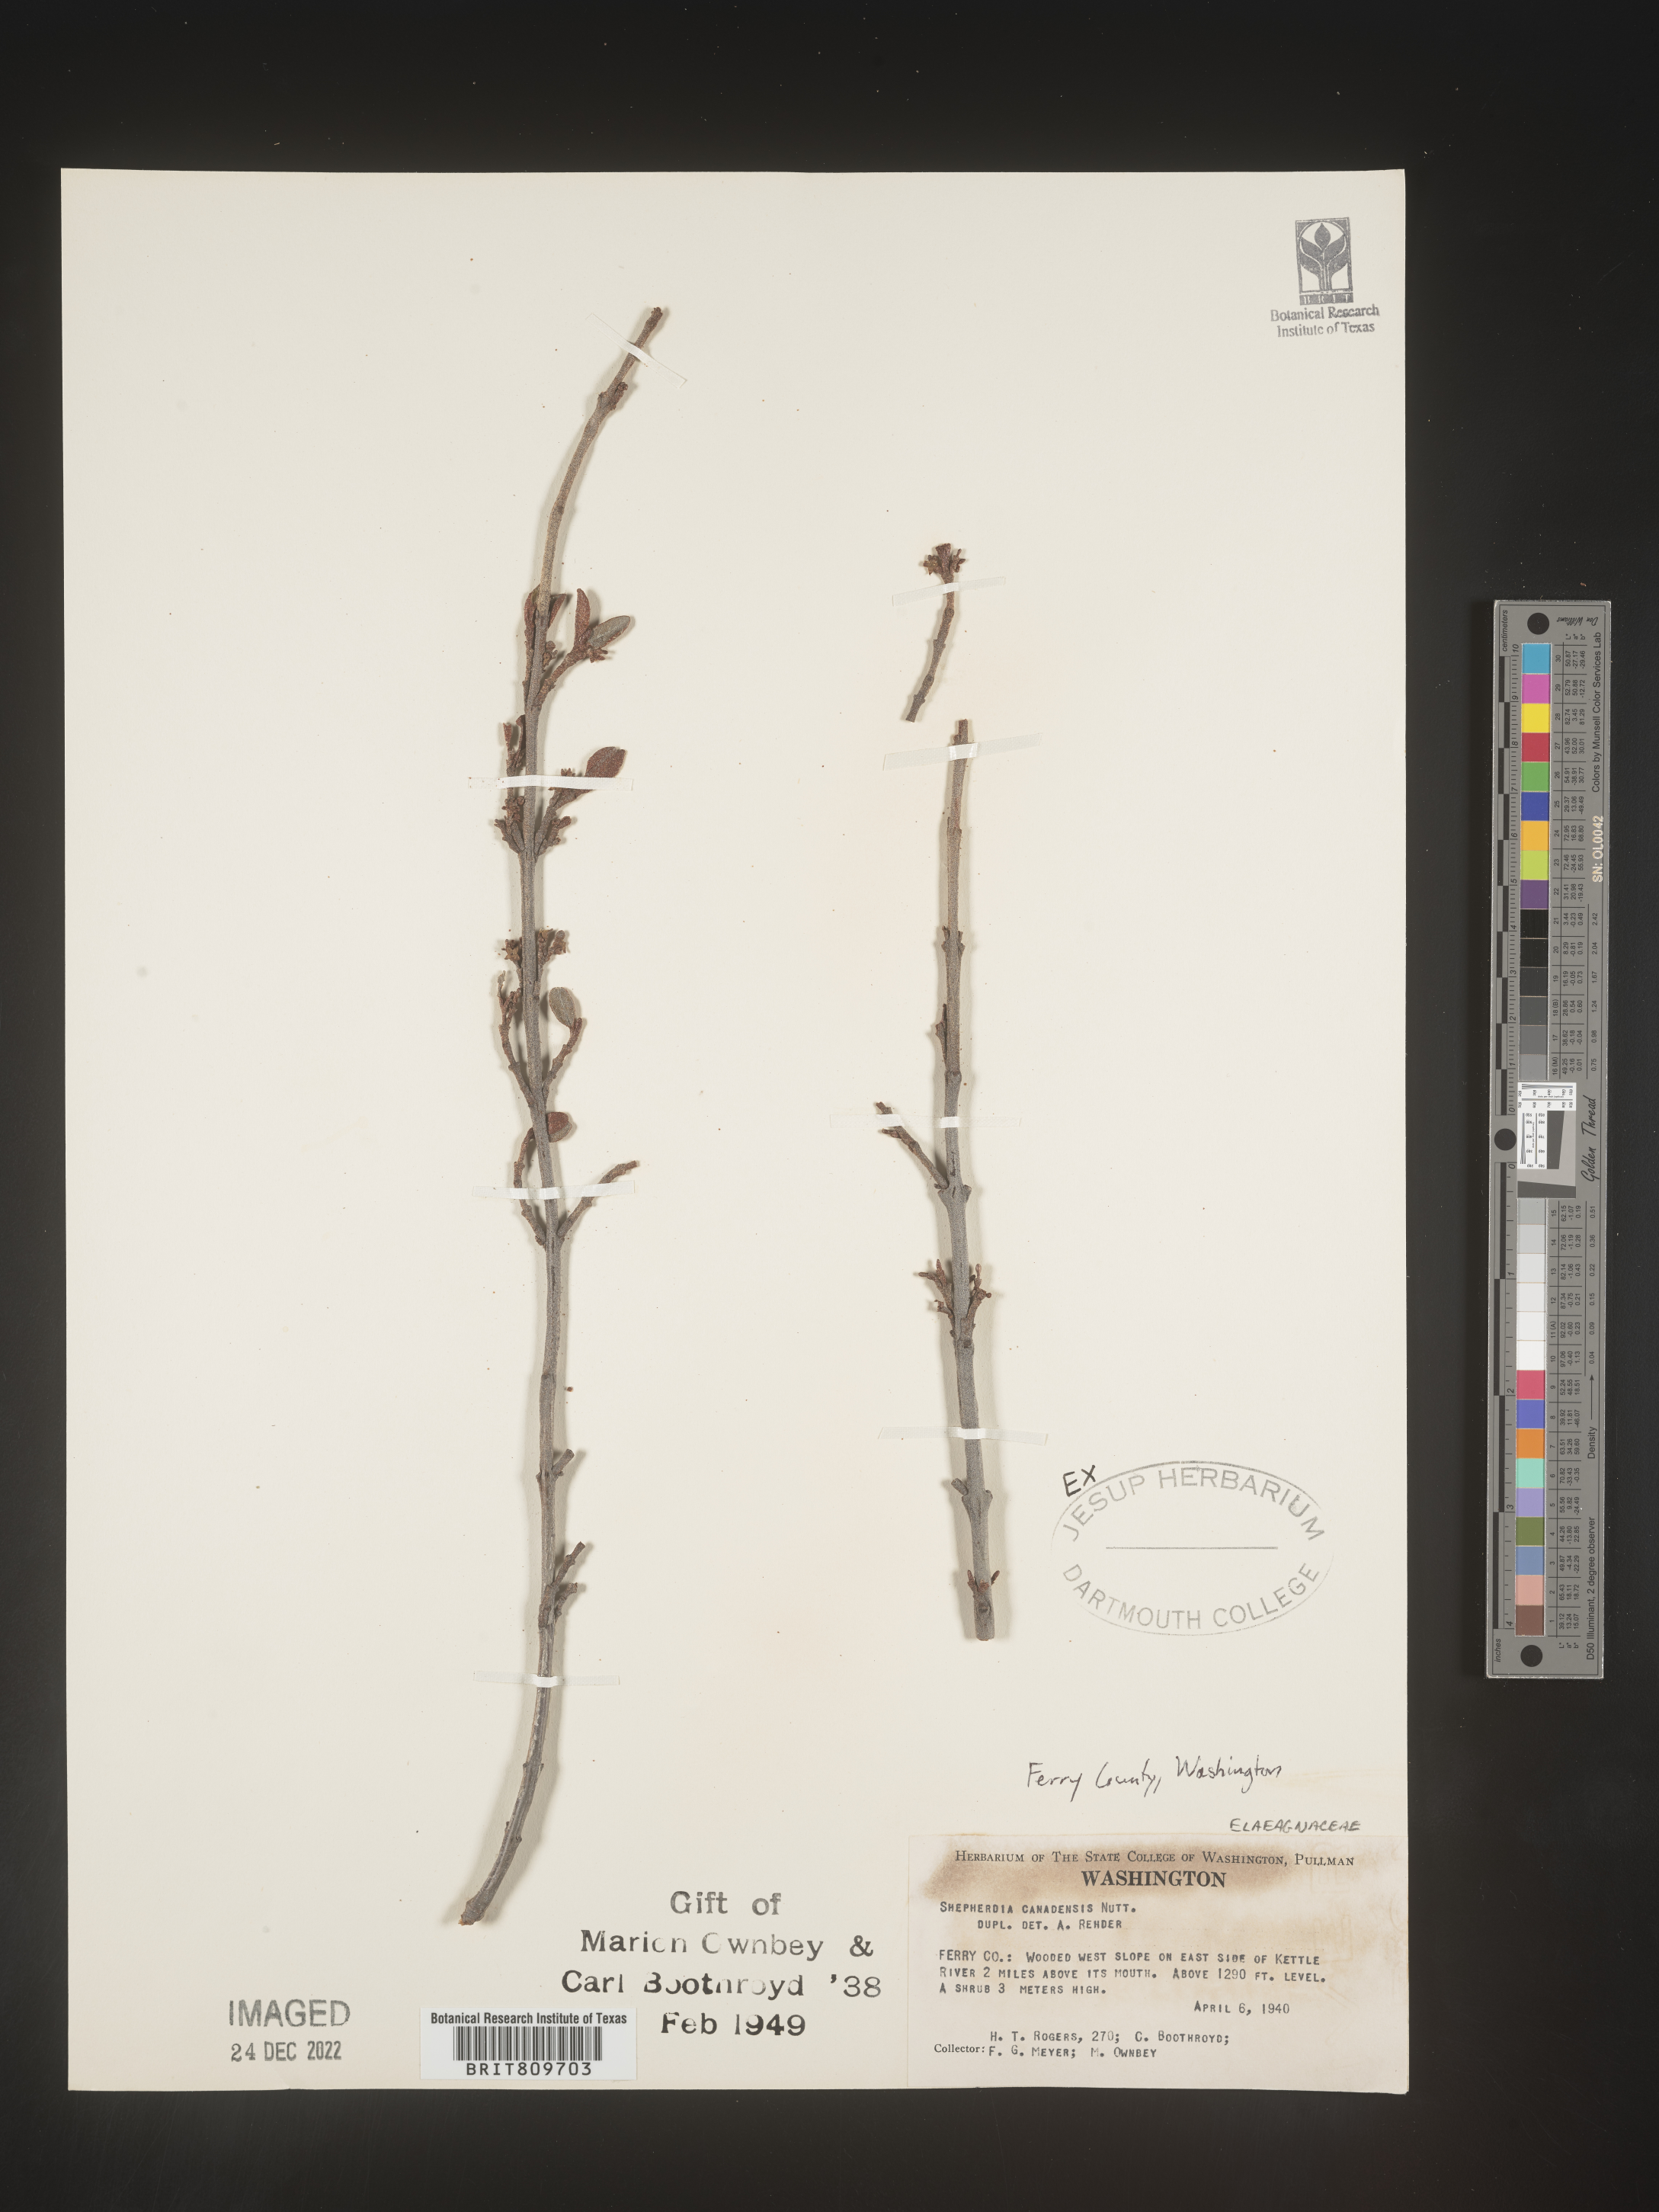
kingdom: Plantae
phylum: Tracheophyta
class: Magnoliopsida
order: Rosales
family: Elaeagnaceae
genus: Shepherdia
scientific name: Shepherdia canadensis
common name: Soapberry
